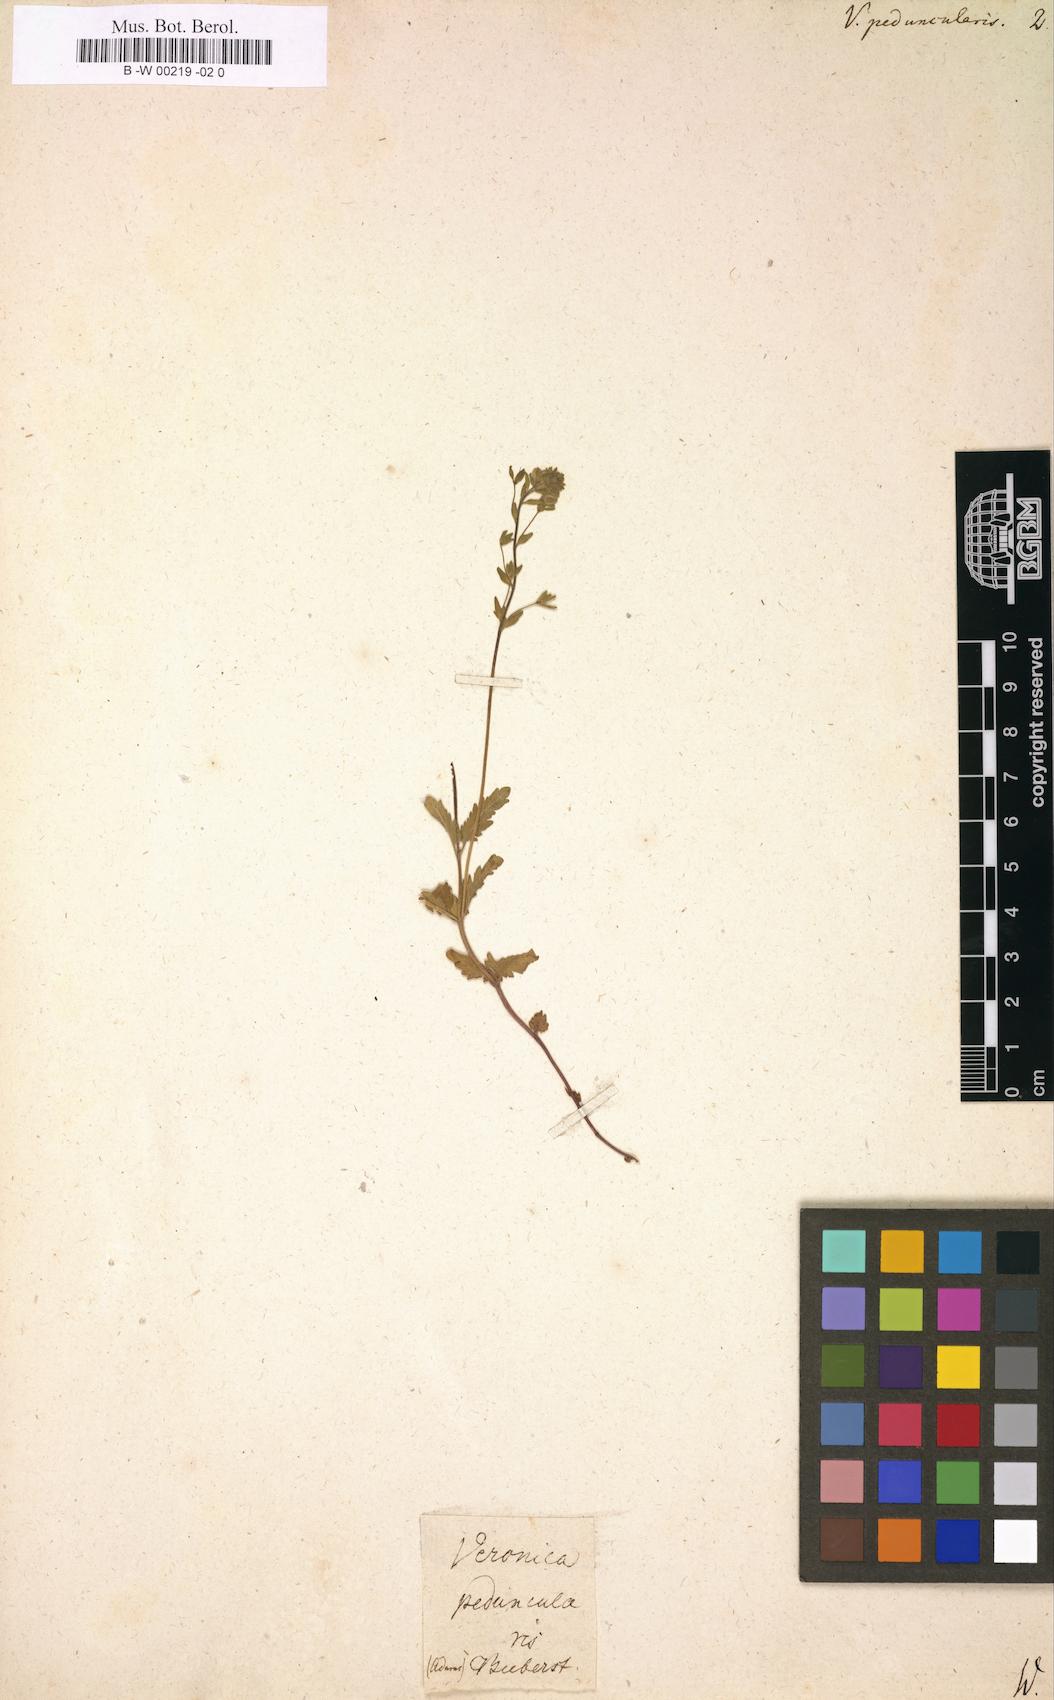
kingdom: Plantae
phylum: Tracheophyta
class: Magnoliopsida
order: Lamiales
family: Plantaginaceae
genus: Veronica
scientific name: Veronica peduncularis
